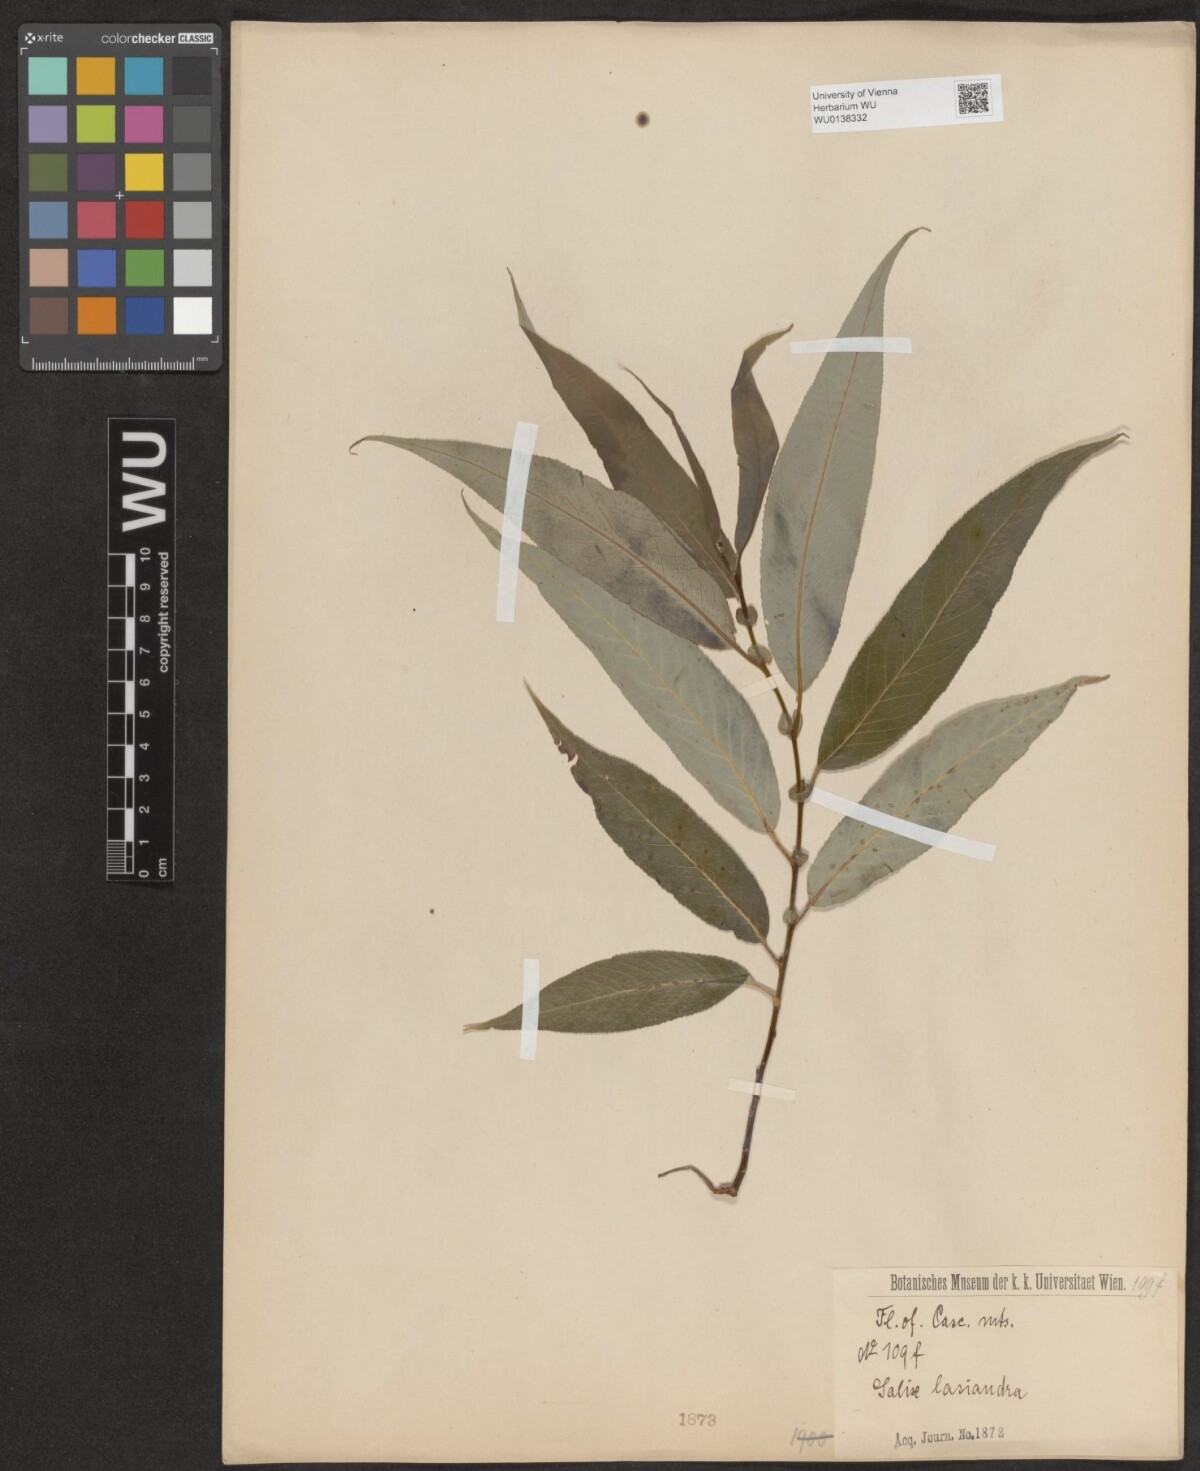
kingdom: Plantae
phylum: Tracheophyta
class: Magnoliopsida
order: Malpighiales
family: Salicaceae
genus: Salix
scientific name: Salix lucida
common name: Shining willow
